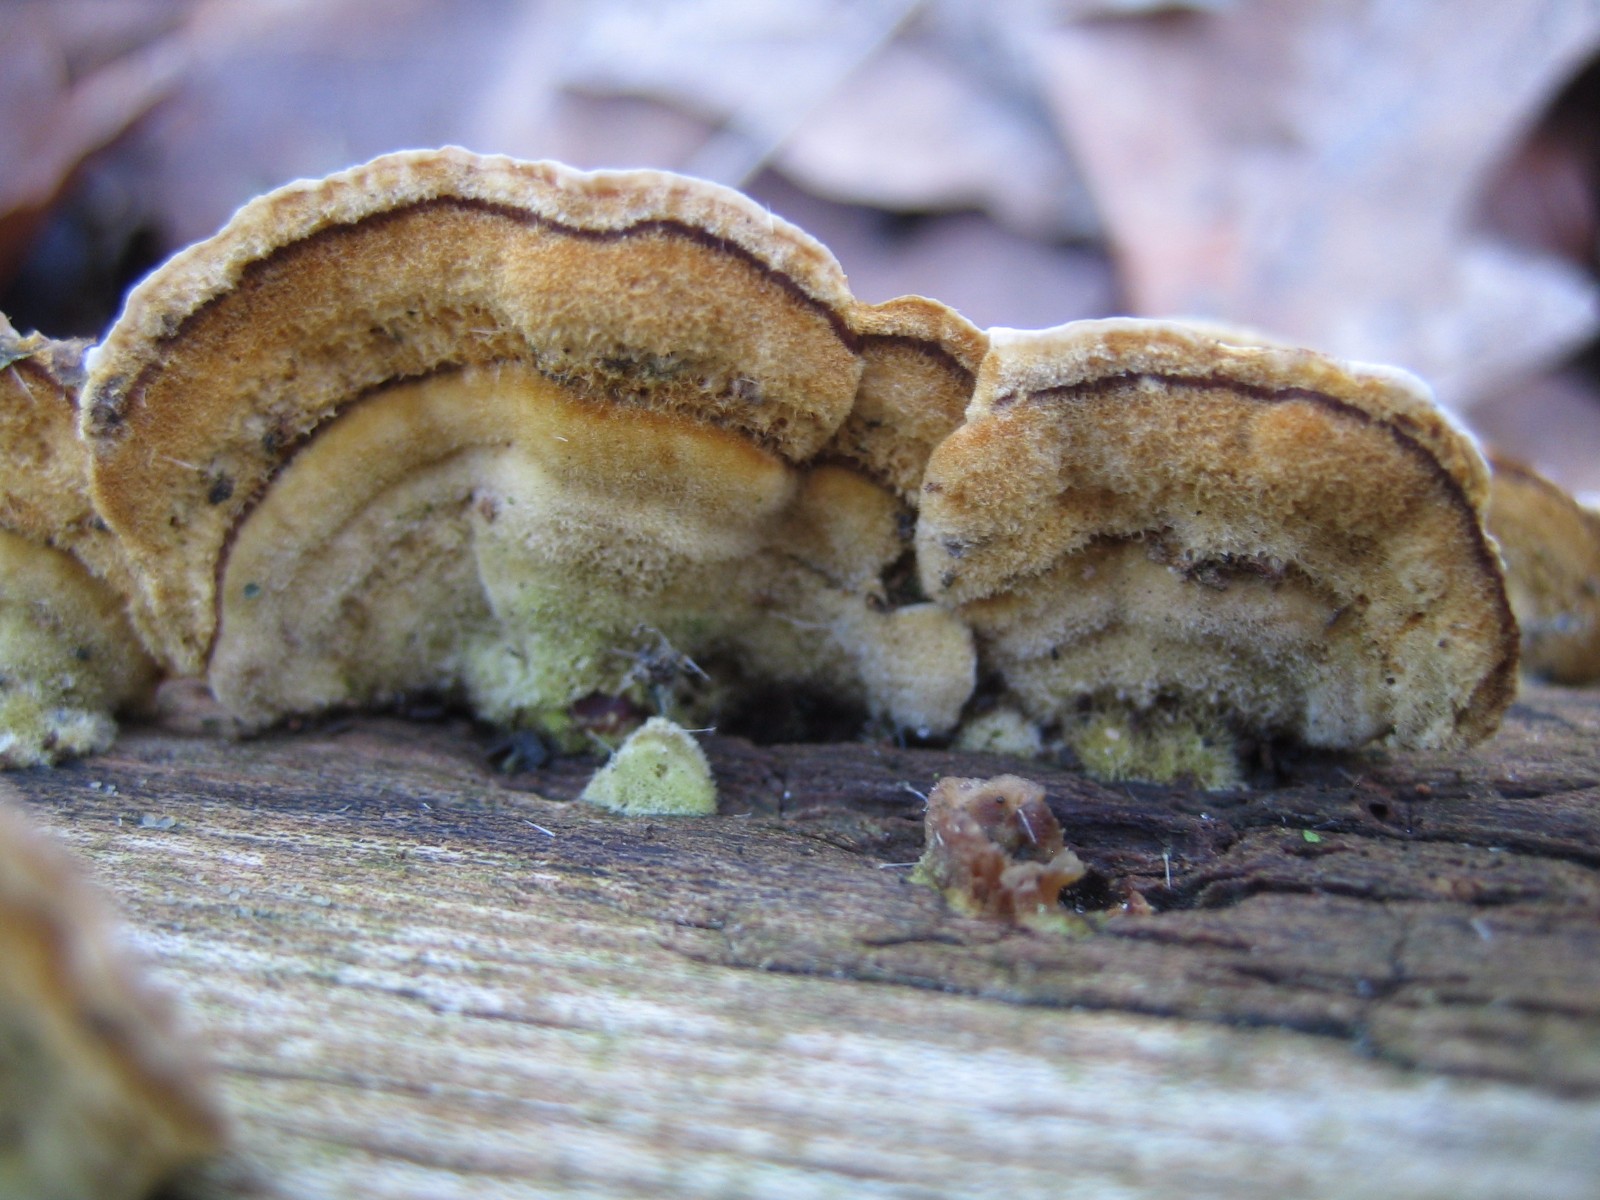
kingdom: Fungi
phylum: Basidiomycota
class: Agaricomycetes
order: Russulales
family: Stereaceae
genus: Stereum
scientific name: Stereum subtomentosum
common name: smuk lædersvamp
